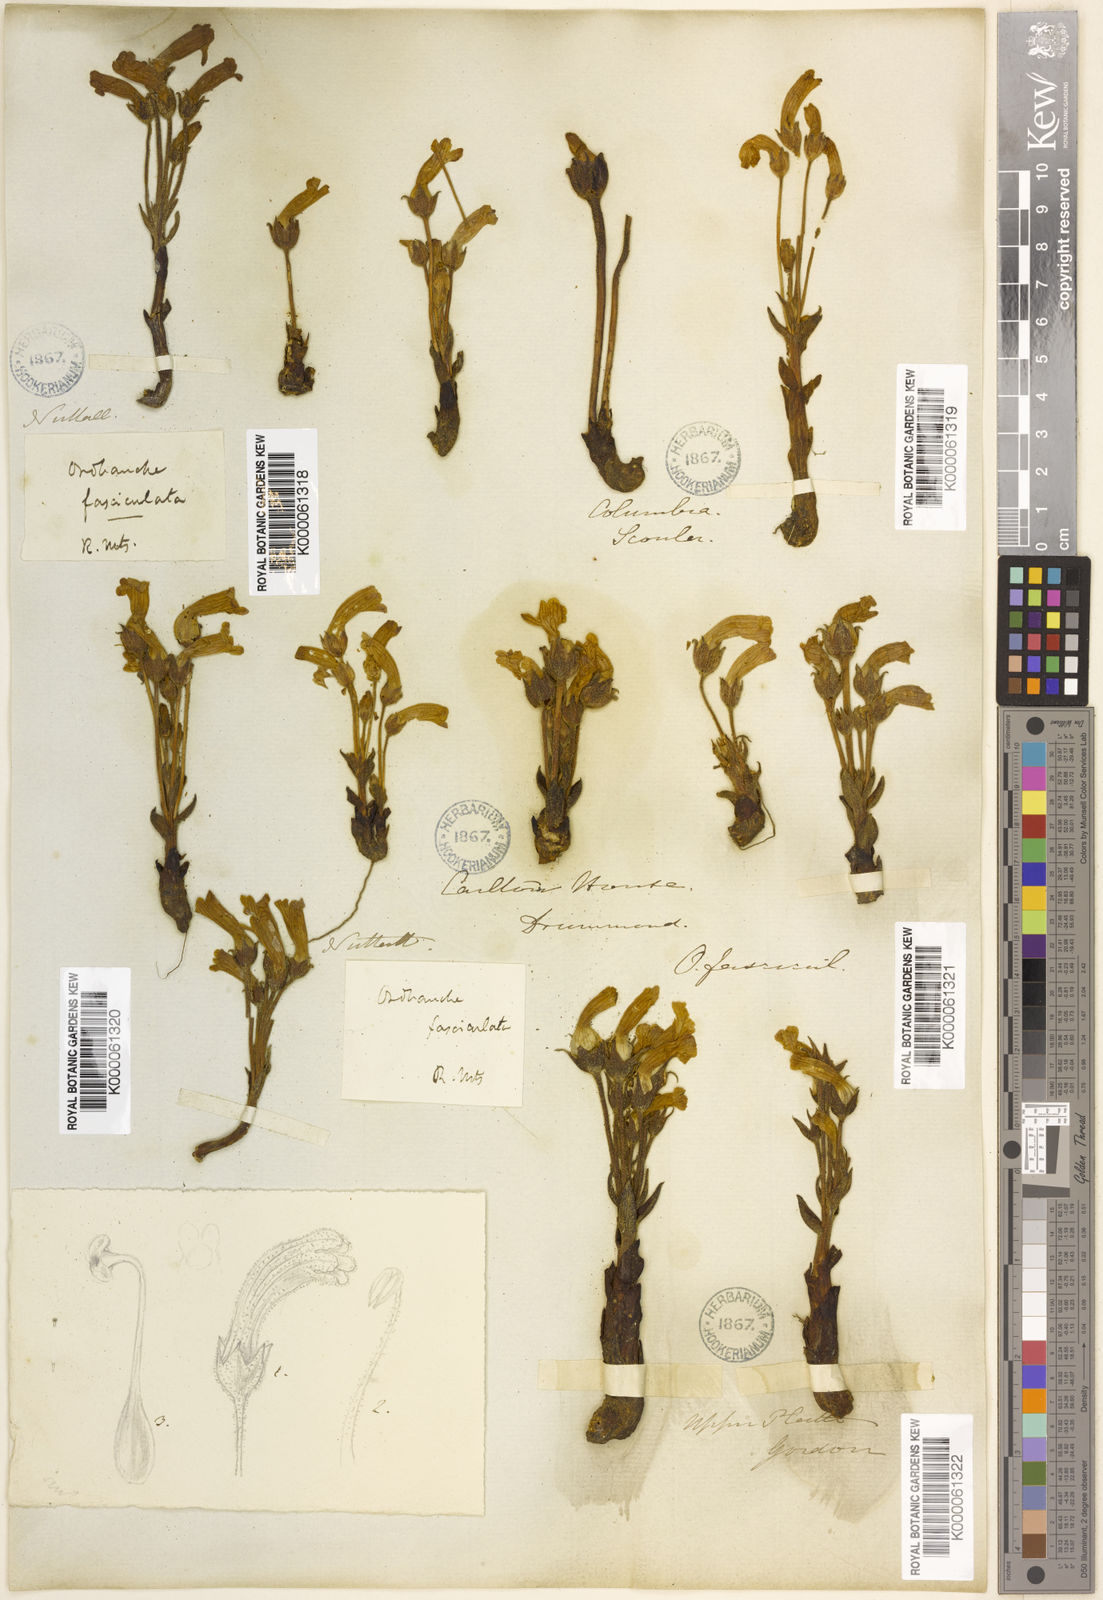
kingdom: Plantae
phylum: Tracheophyta
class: Magnoliopsida
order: Lamiales
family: Orobanchaceae
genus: Aphyllon
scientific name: Aphyllon fasciculatum
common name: Clustered broomrape
